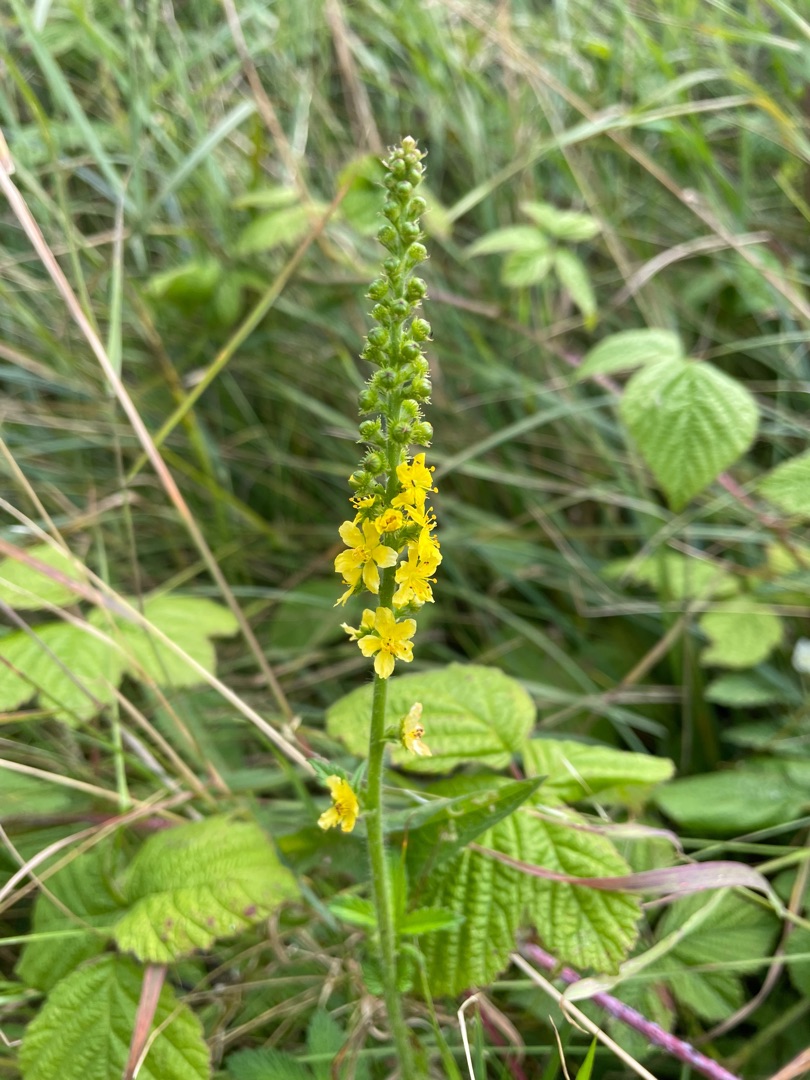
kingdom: Plantae
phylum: Tracheophyta
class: Magnoliopsida
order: Rosales
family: Rosaceae
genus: Agrimonia
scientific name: Agrimonia eupatoria
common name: Almindelig agermåne
